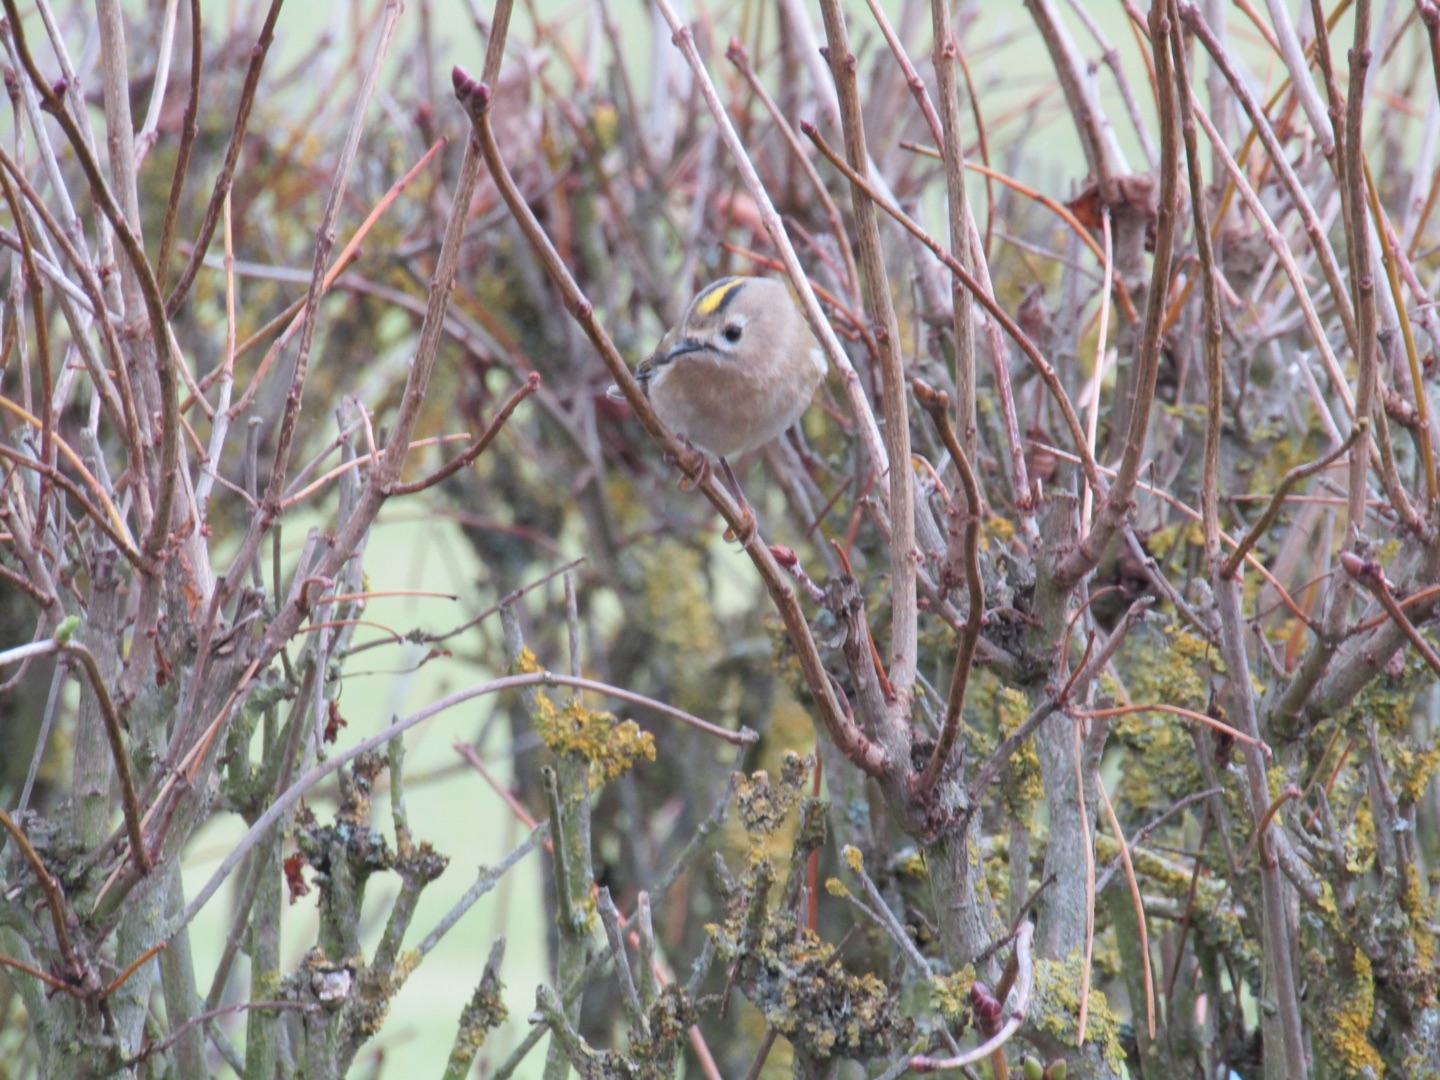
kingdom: Animalia
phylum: Chordata
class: Aves
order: Passeriformes
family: Regulidae
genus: Regulus
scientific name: Regulus regulus
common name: Fuglekonge
